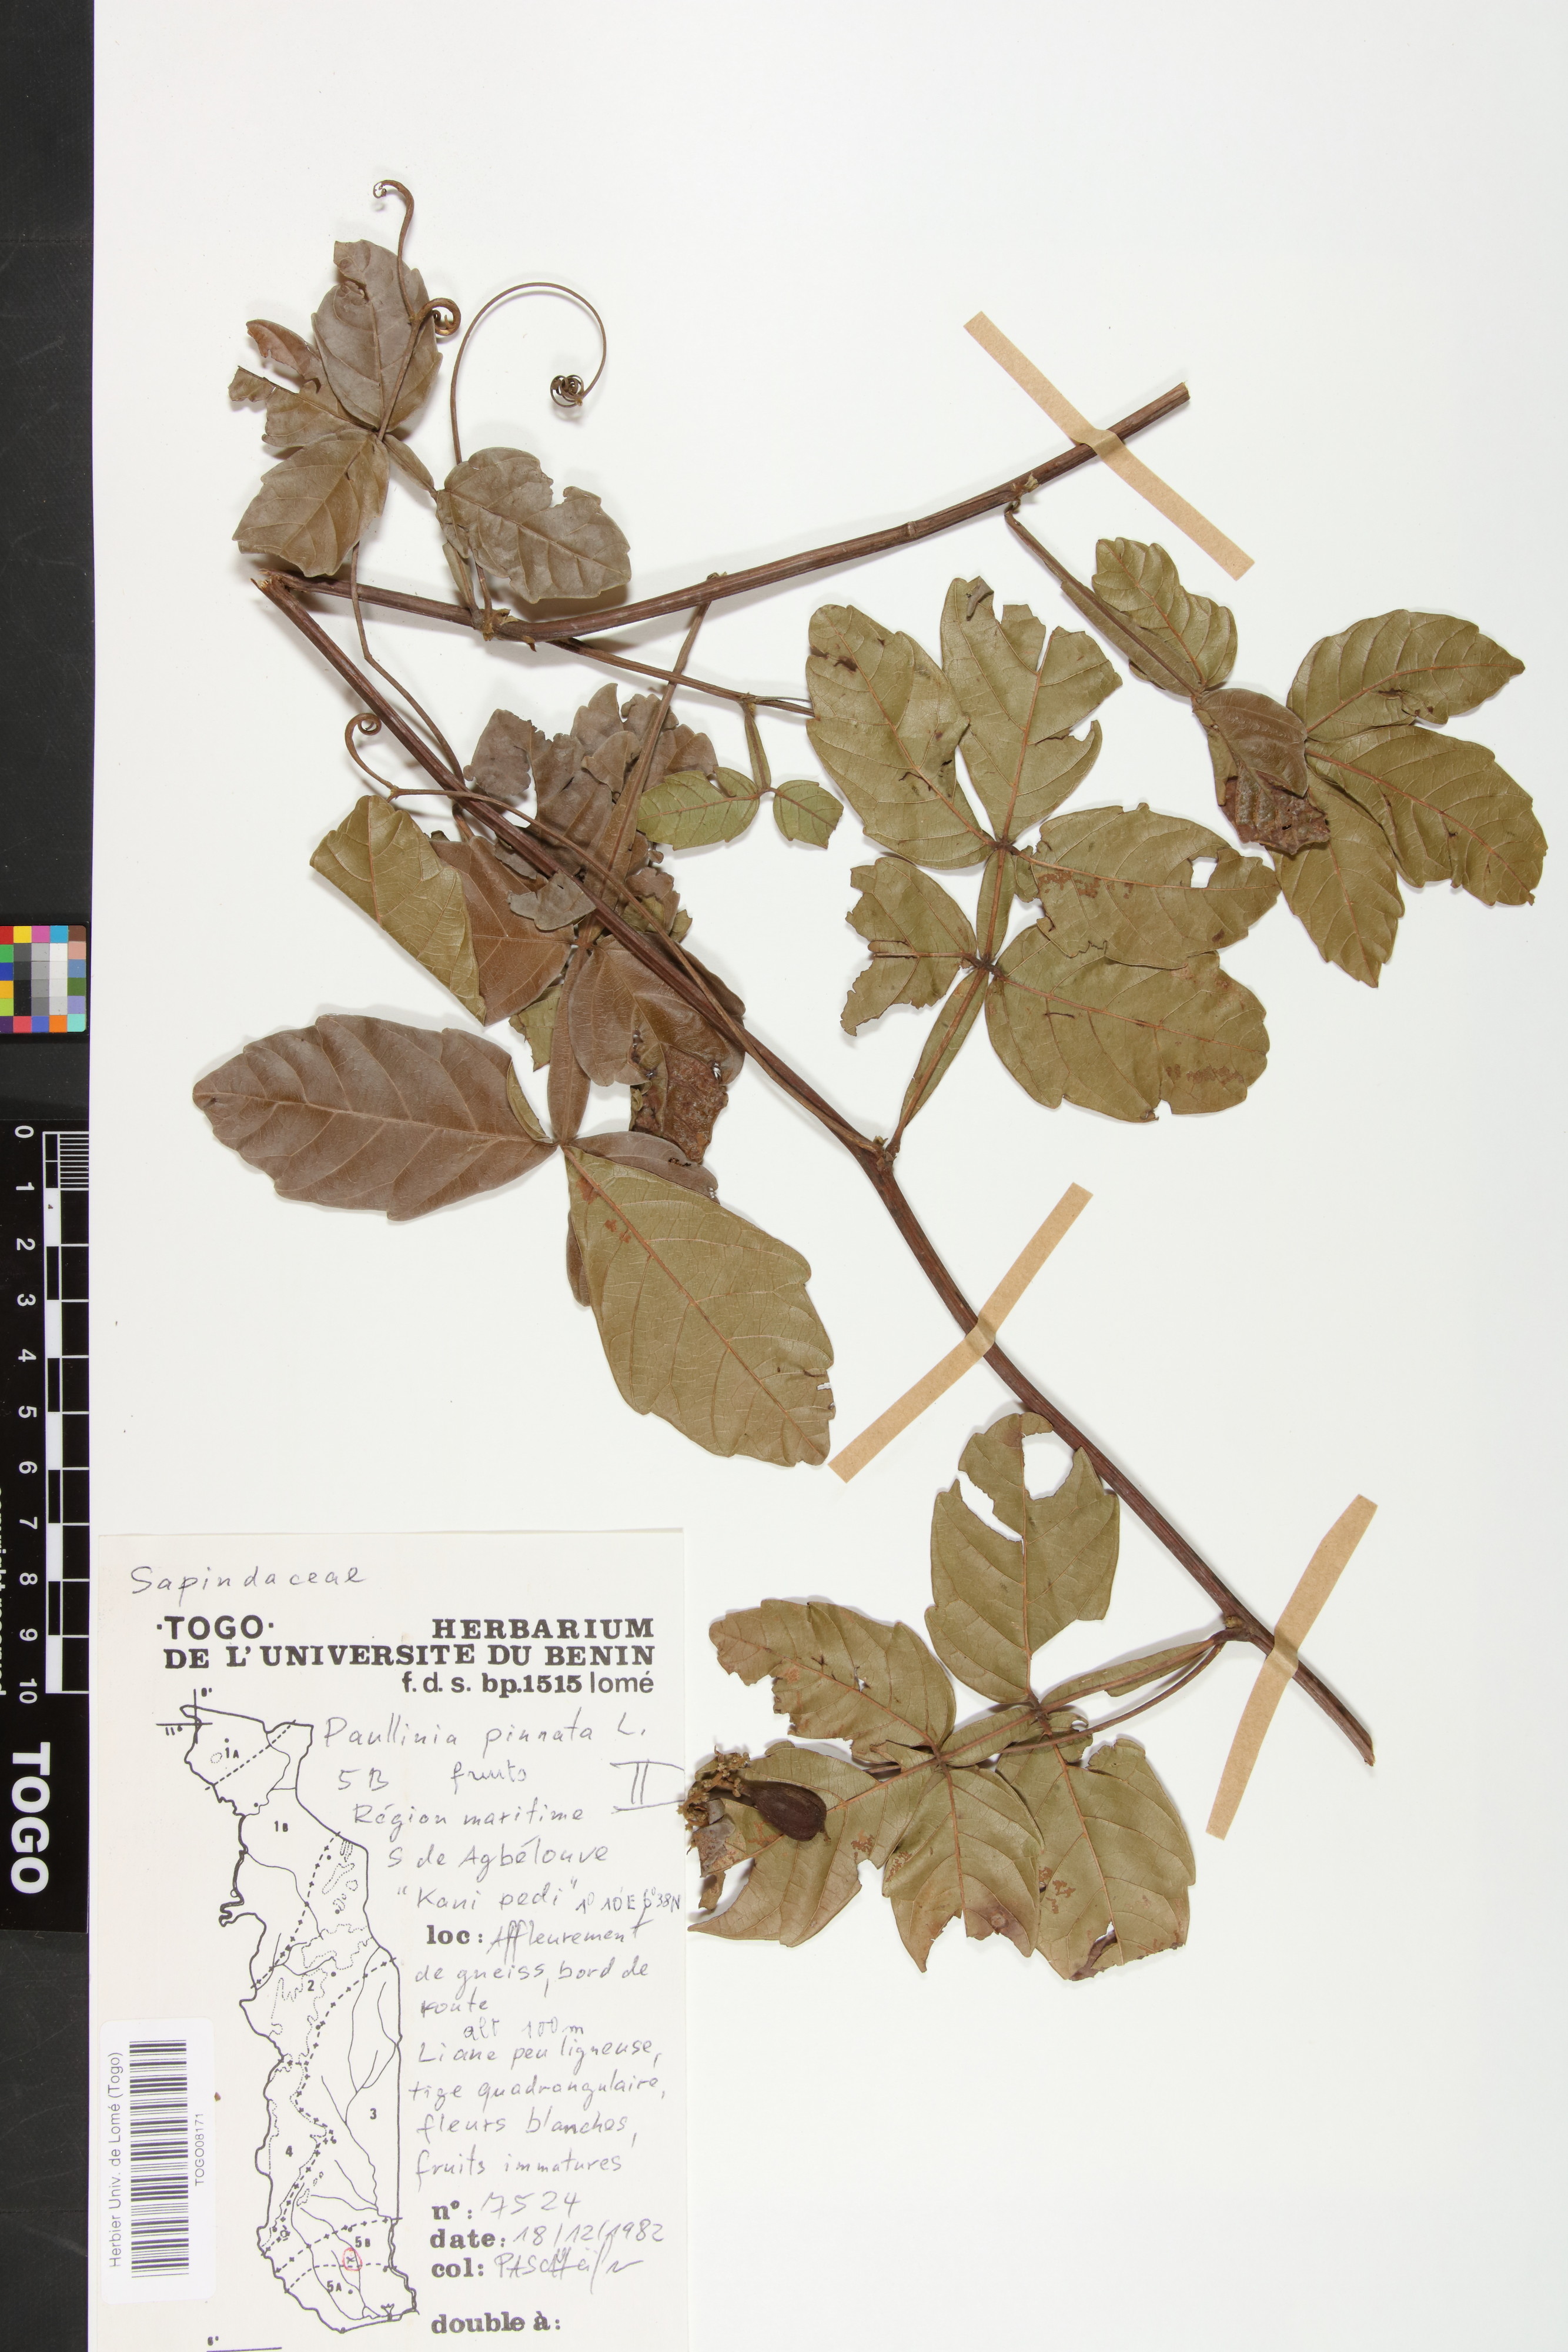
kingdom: Plantae
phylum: Tracheophyta
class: Magnoliopsida
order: Sapindales
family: Sapindaceae
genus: Paullinia
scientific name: Paullinia pinnata
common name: Barbasco
